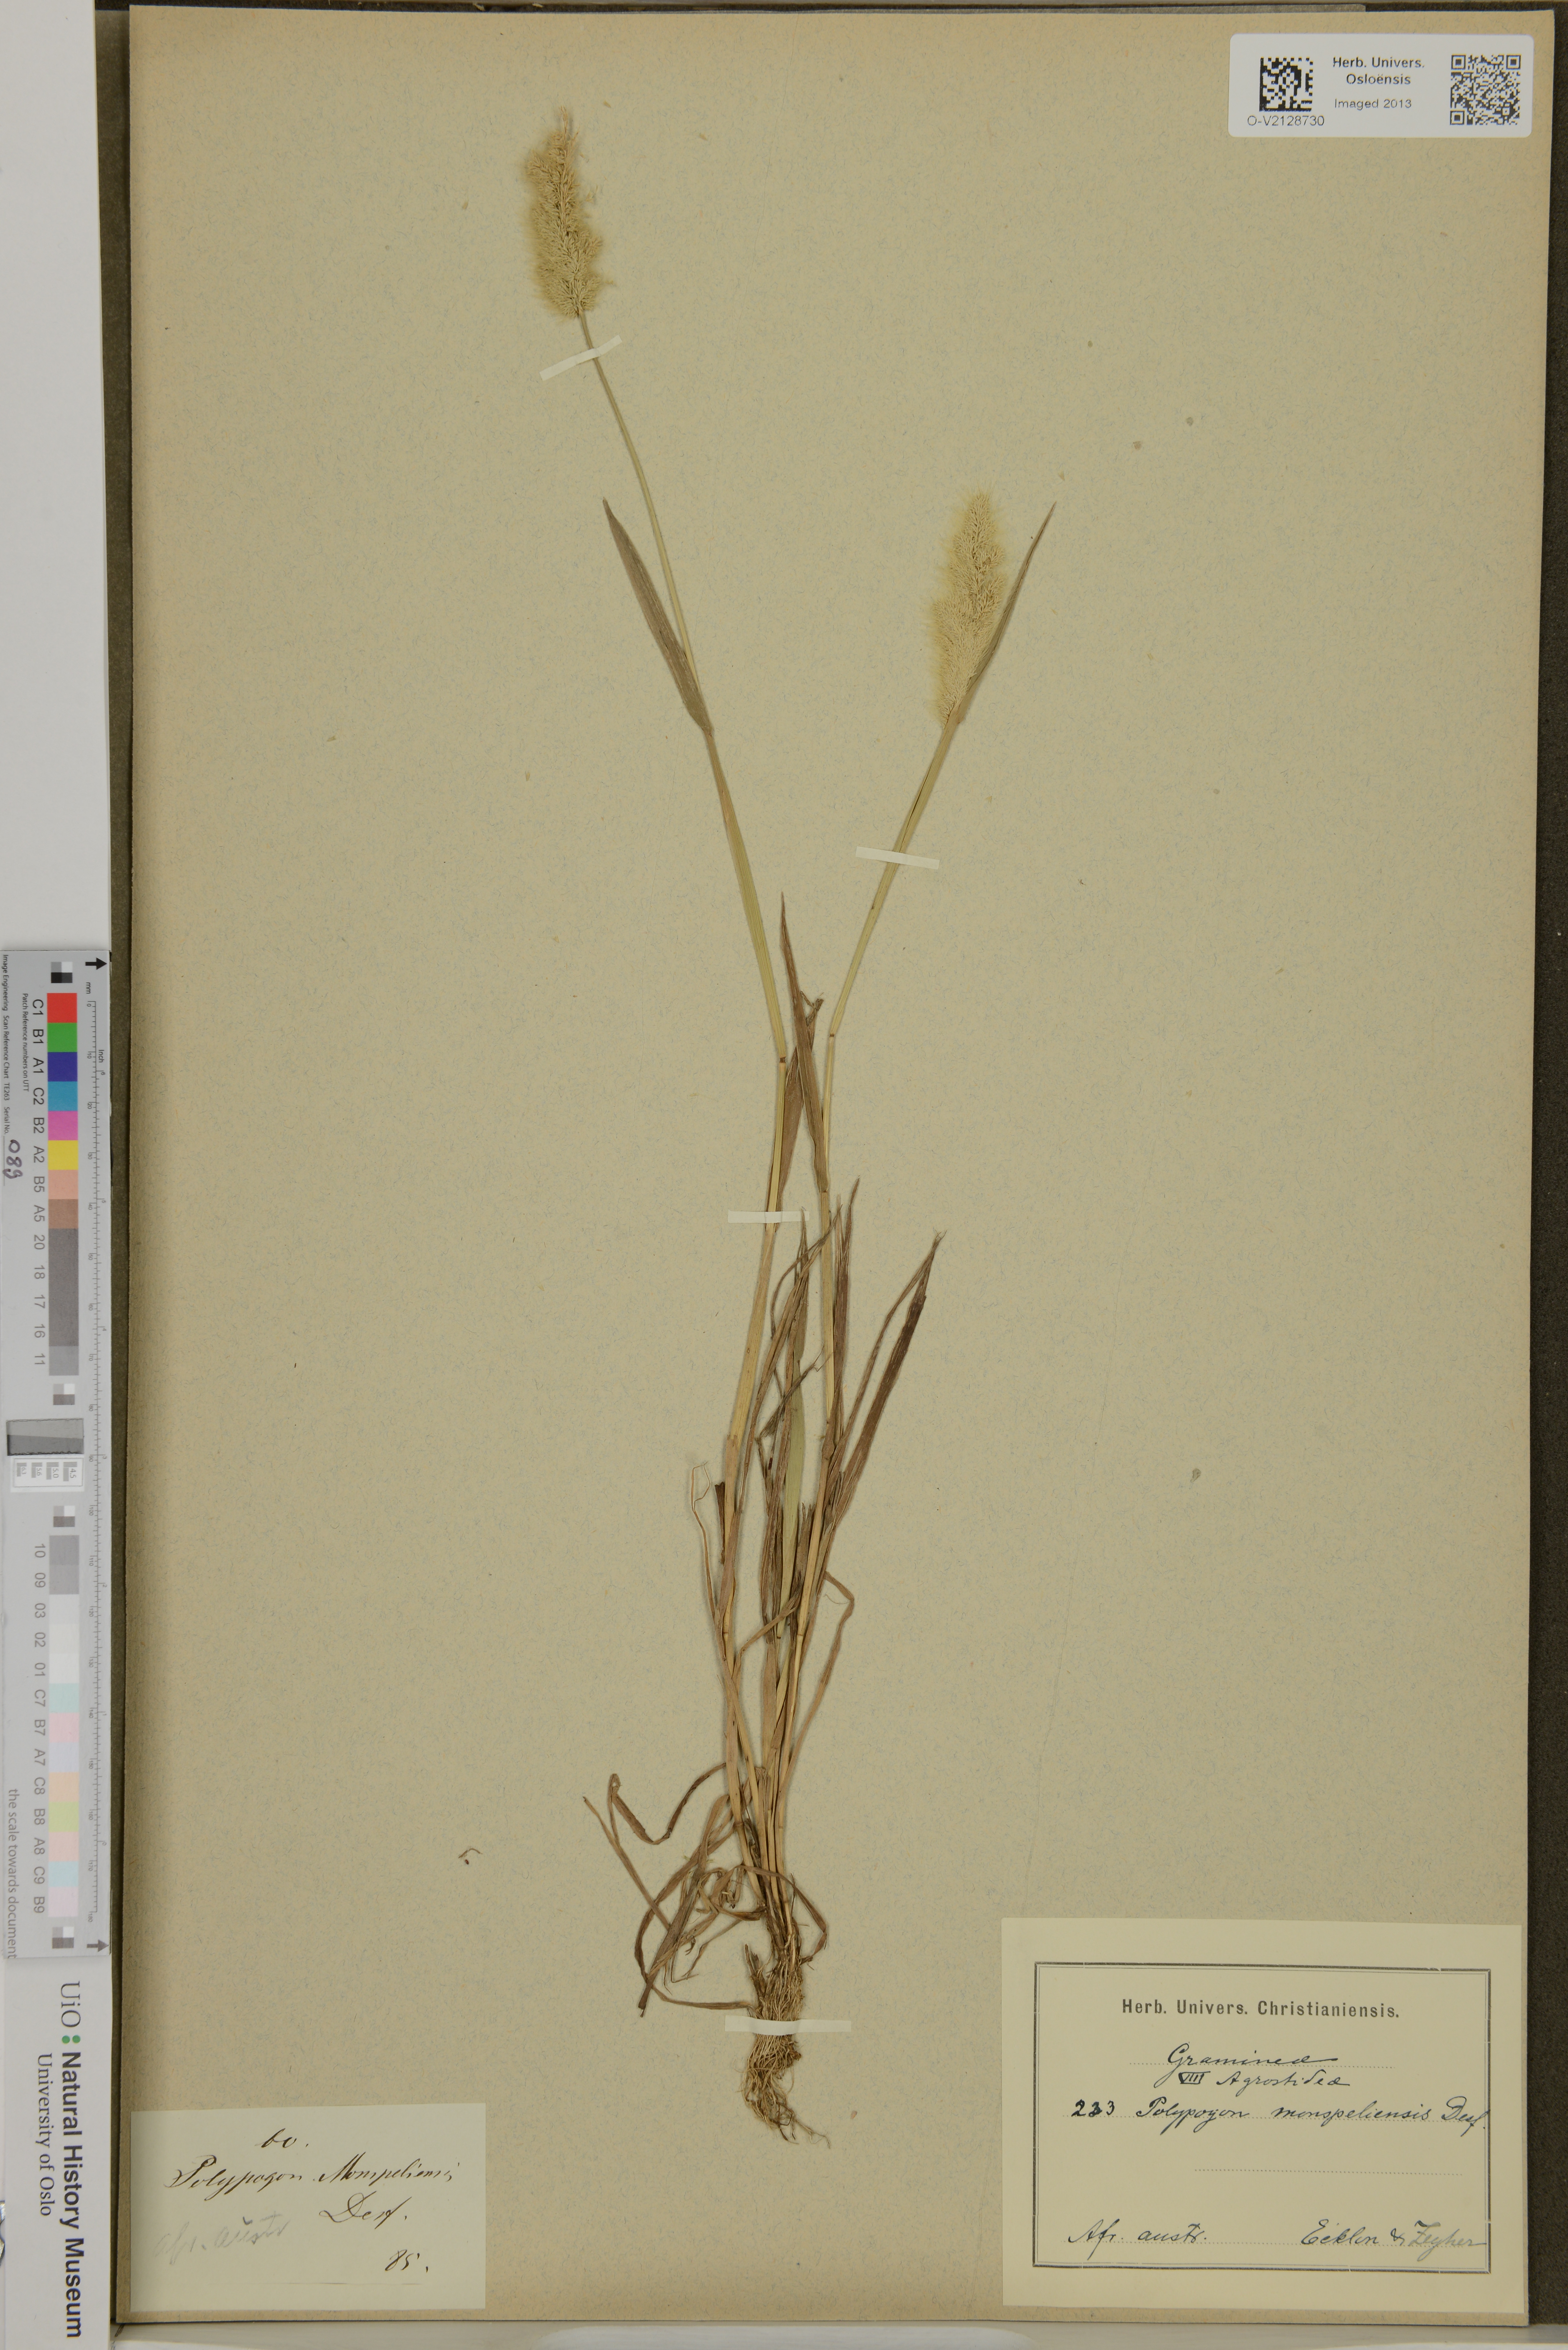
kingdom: Plantae
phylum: Tracheophyta
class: Liliopsida
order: Poales
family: Poaceae
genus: Polypogon
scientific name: Polypogon monspeliensis
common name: Annual rabbitsfoot grass
